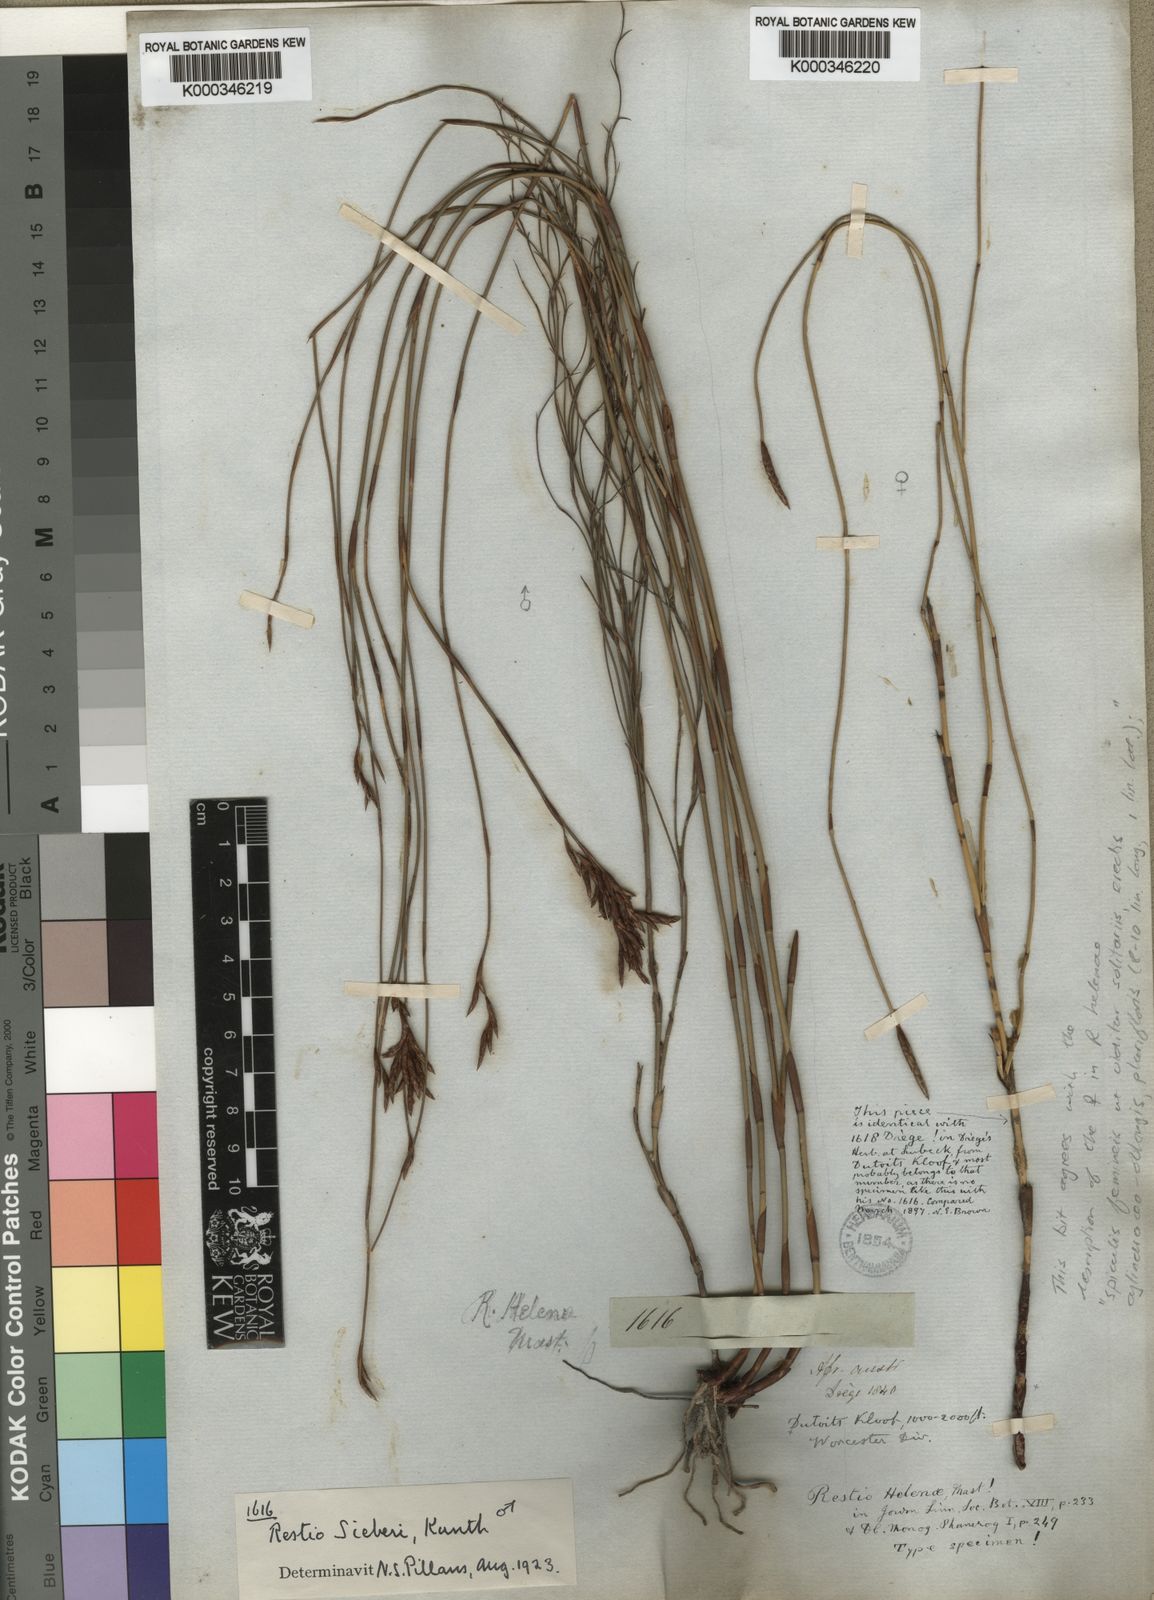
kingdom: Plantae
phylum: Tracheophyta
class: Liliopsida
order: Poales
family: Restionaceae
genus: Restio
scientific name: Restio
